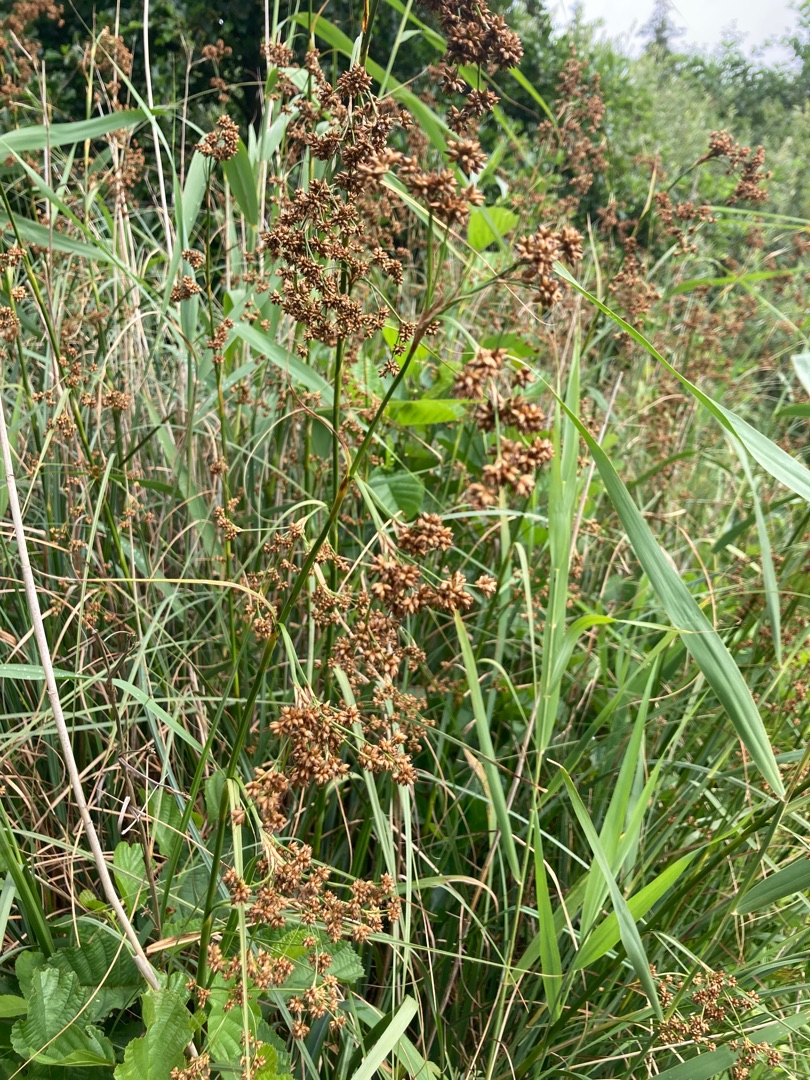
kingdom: Plantae
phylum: Tracheophyta
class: Liliopsida
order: Poales
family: Cyperaceae
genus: Cladium
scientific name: Cladium mariscus
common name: Hvas avneknippe
